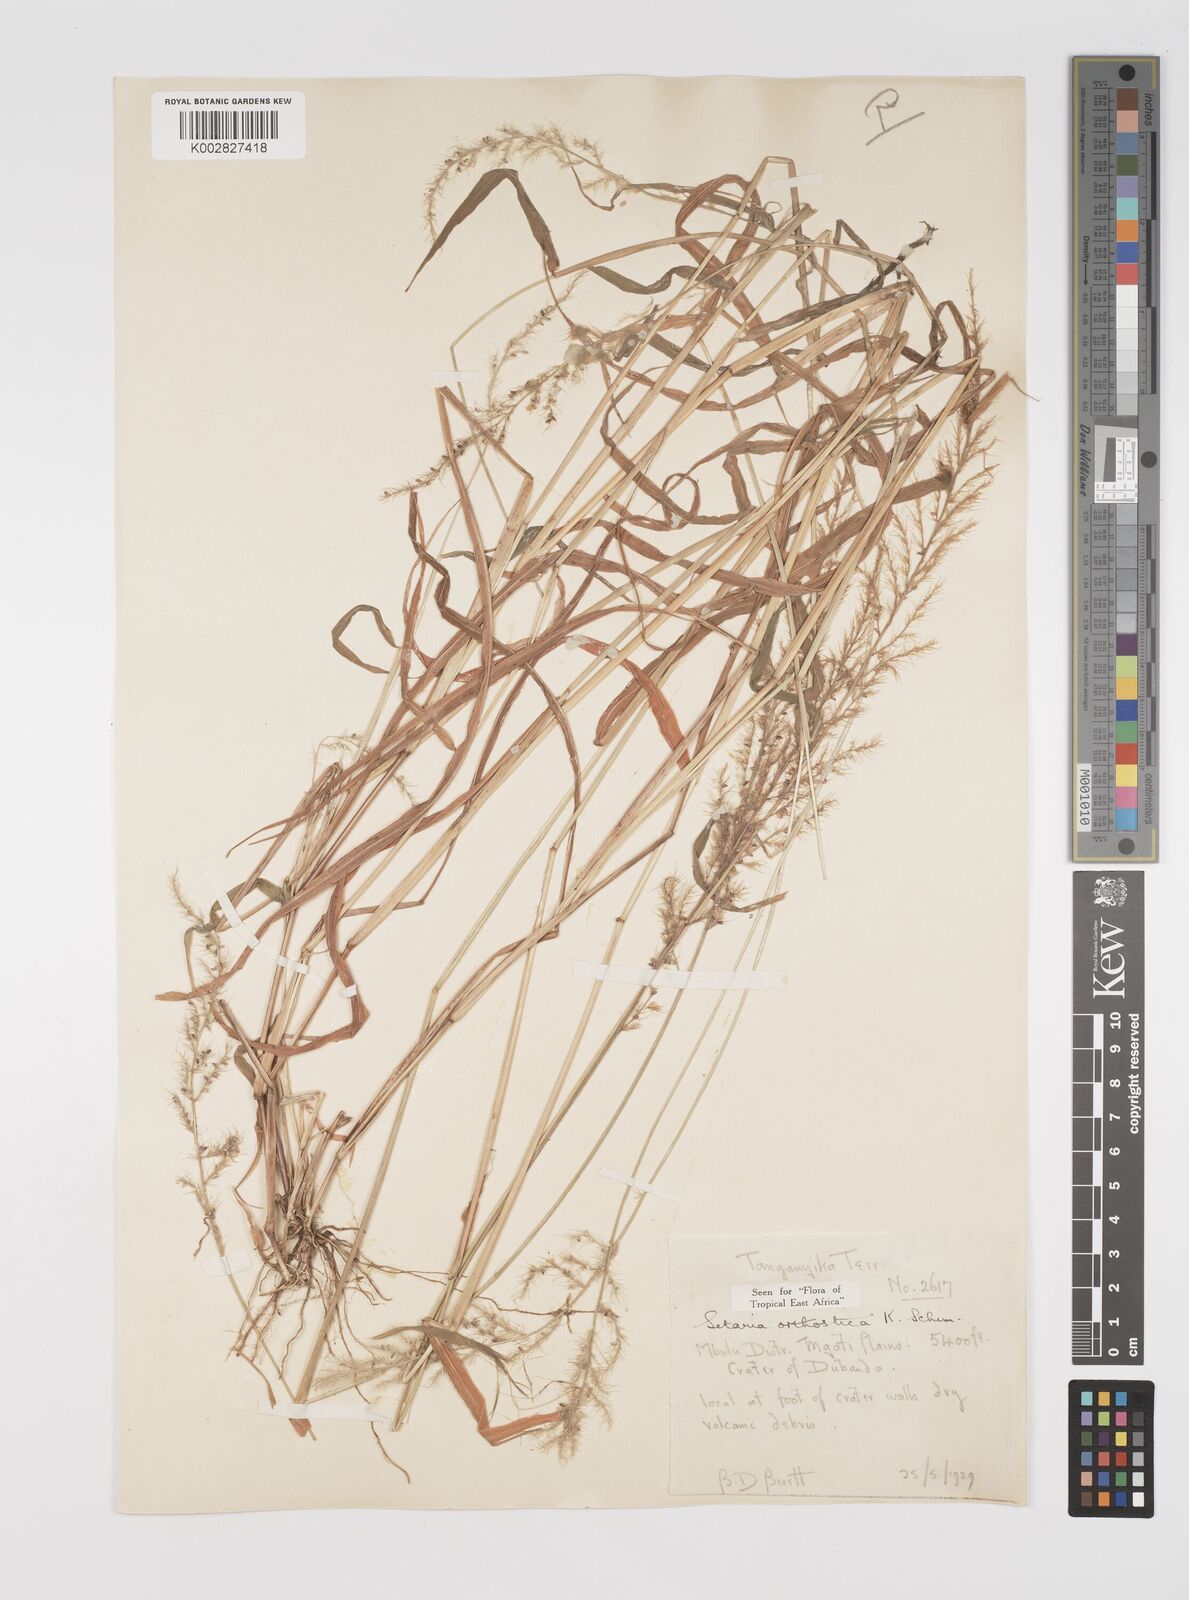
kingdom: Plantae
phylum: Tracheophyta
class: Liliopsida
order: Poales
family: Poaceae
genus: Setaria
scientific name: Setaria orthosticha
